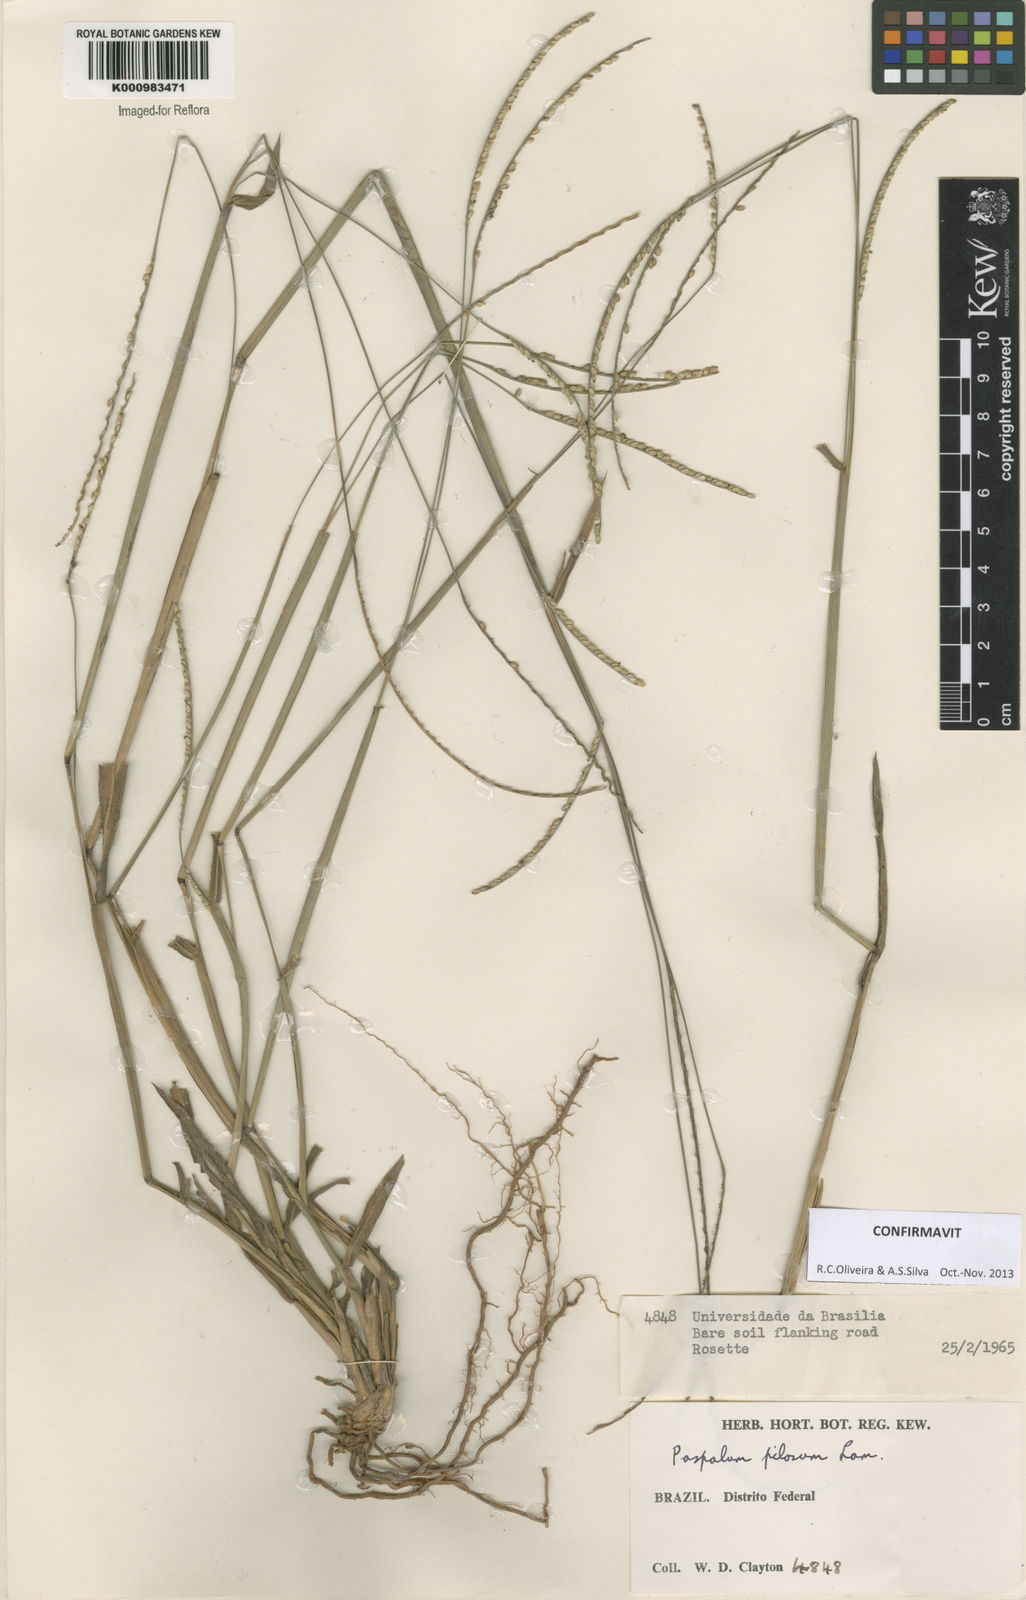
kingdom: Plantae
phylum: Tracheophyta
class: Liliopsida
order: Poales
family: Poaceae
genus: Paspalum
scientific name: Paspalum pilosum
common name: Crowngrass
